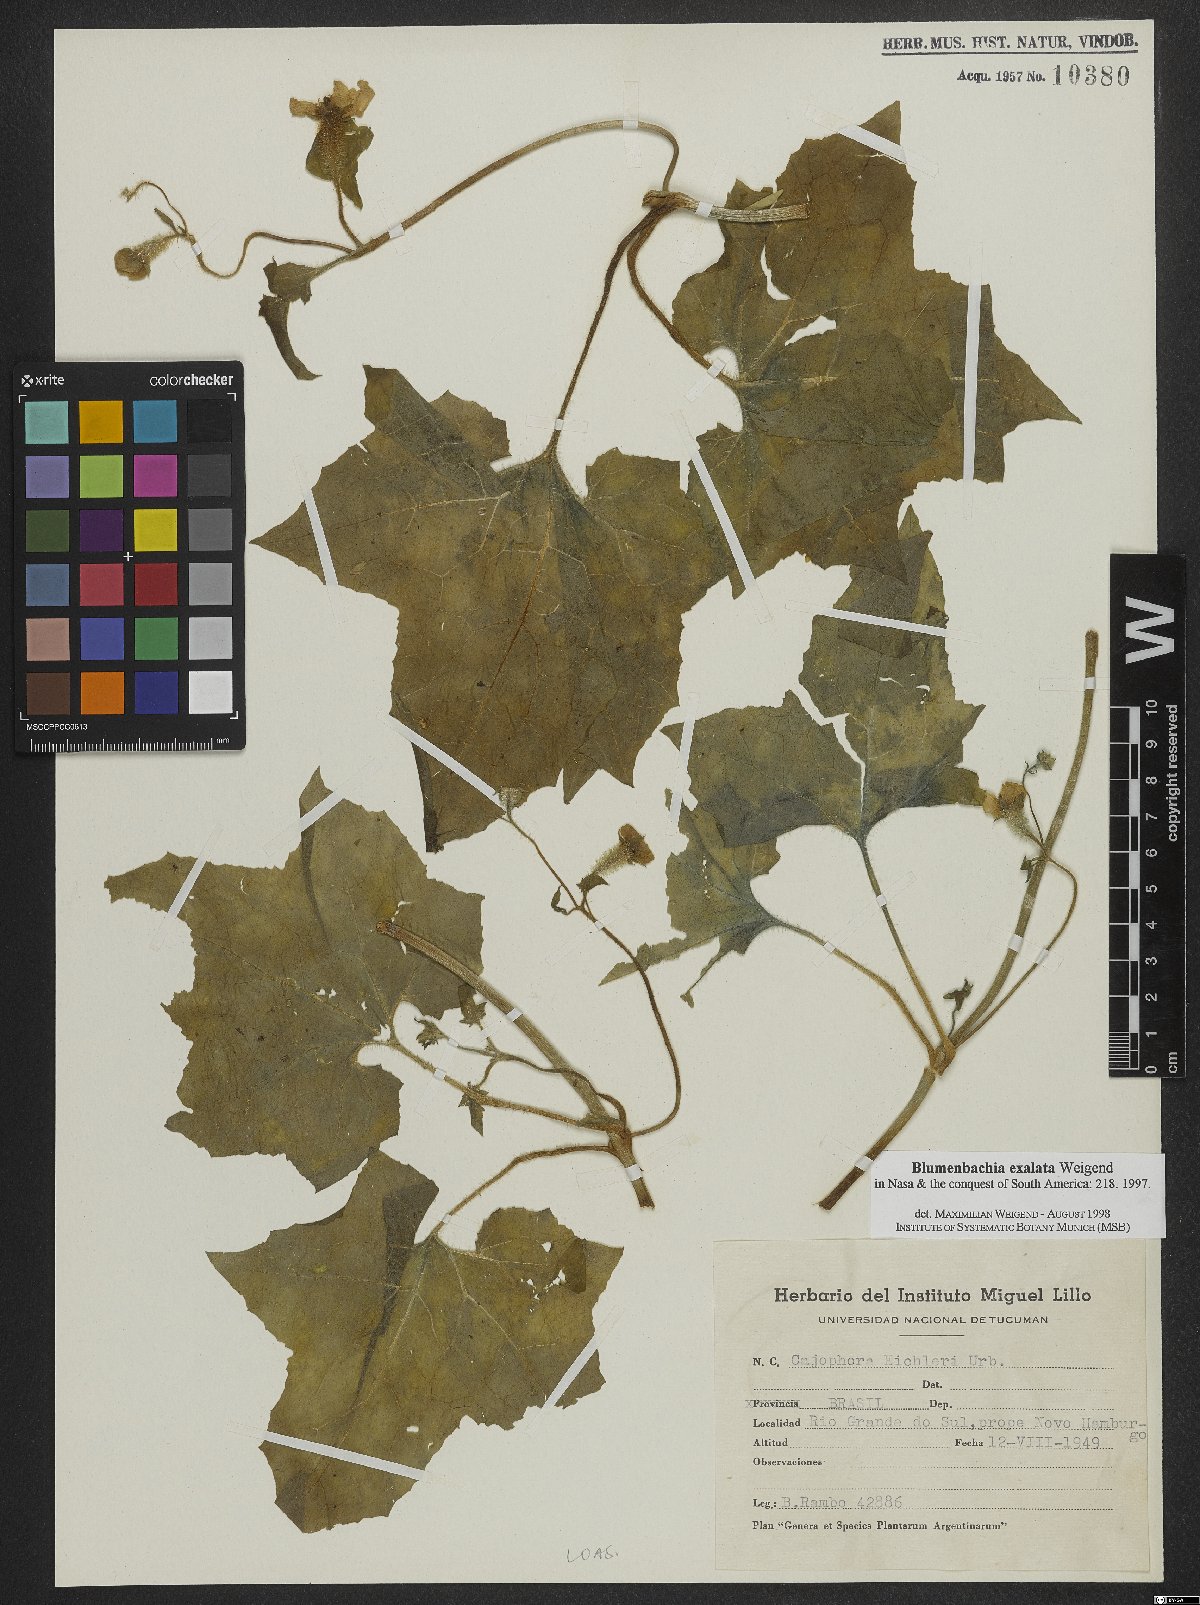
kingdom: Plantae
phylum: Tracheophyta
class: Magnoliopsida
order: Cornales
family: Loasaceae
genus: Blumenbachia
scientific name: Blumenbachia exalata
